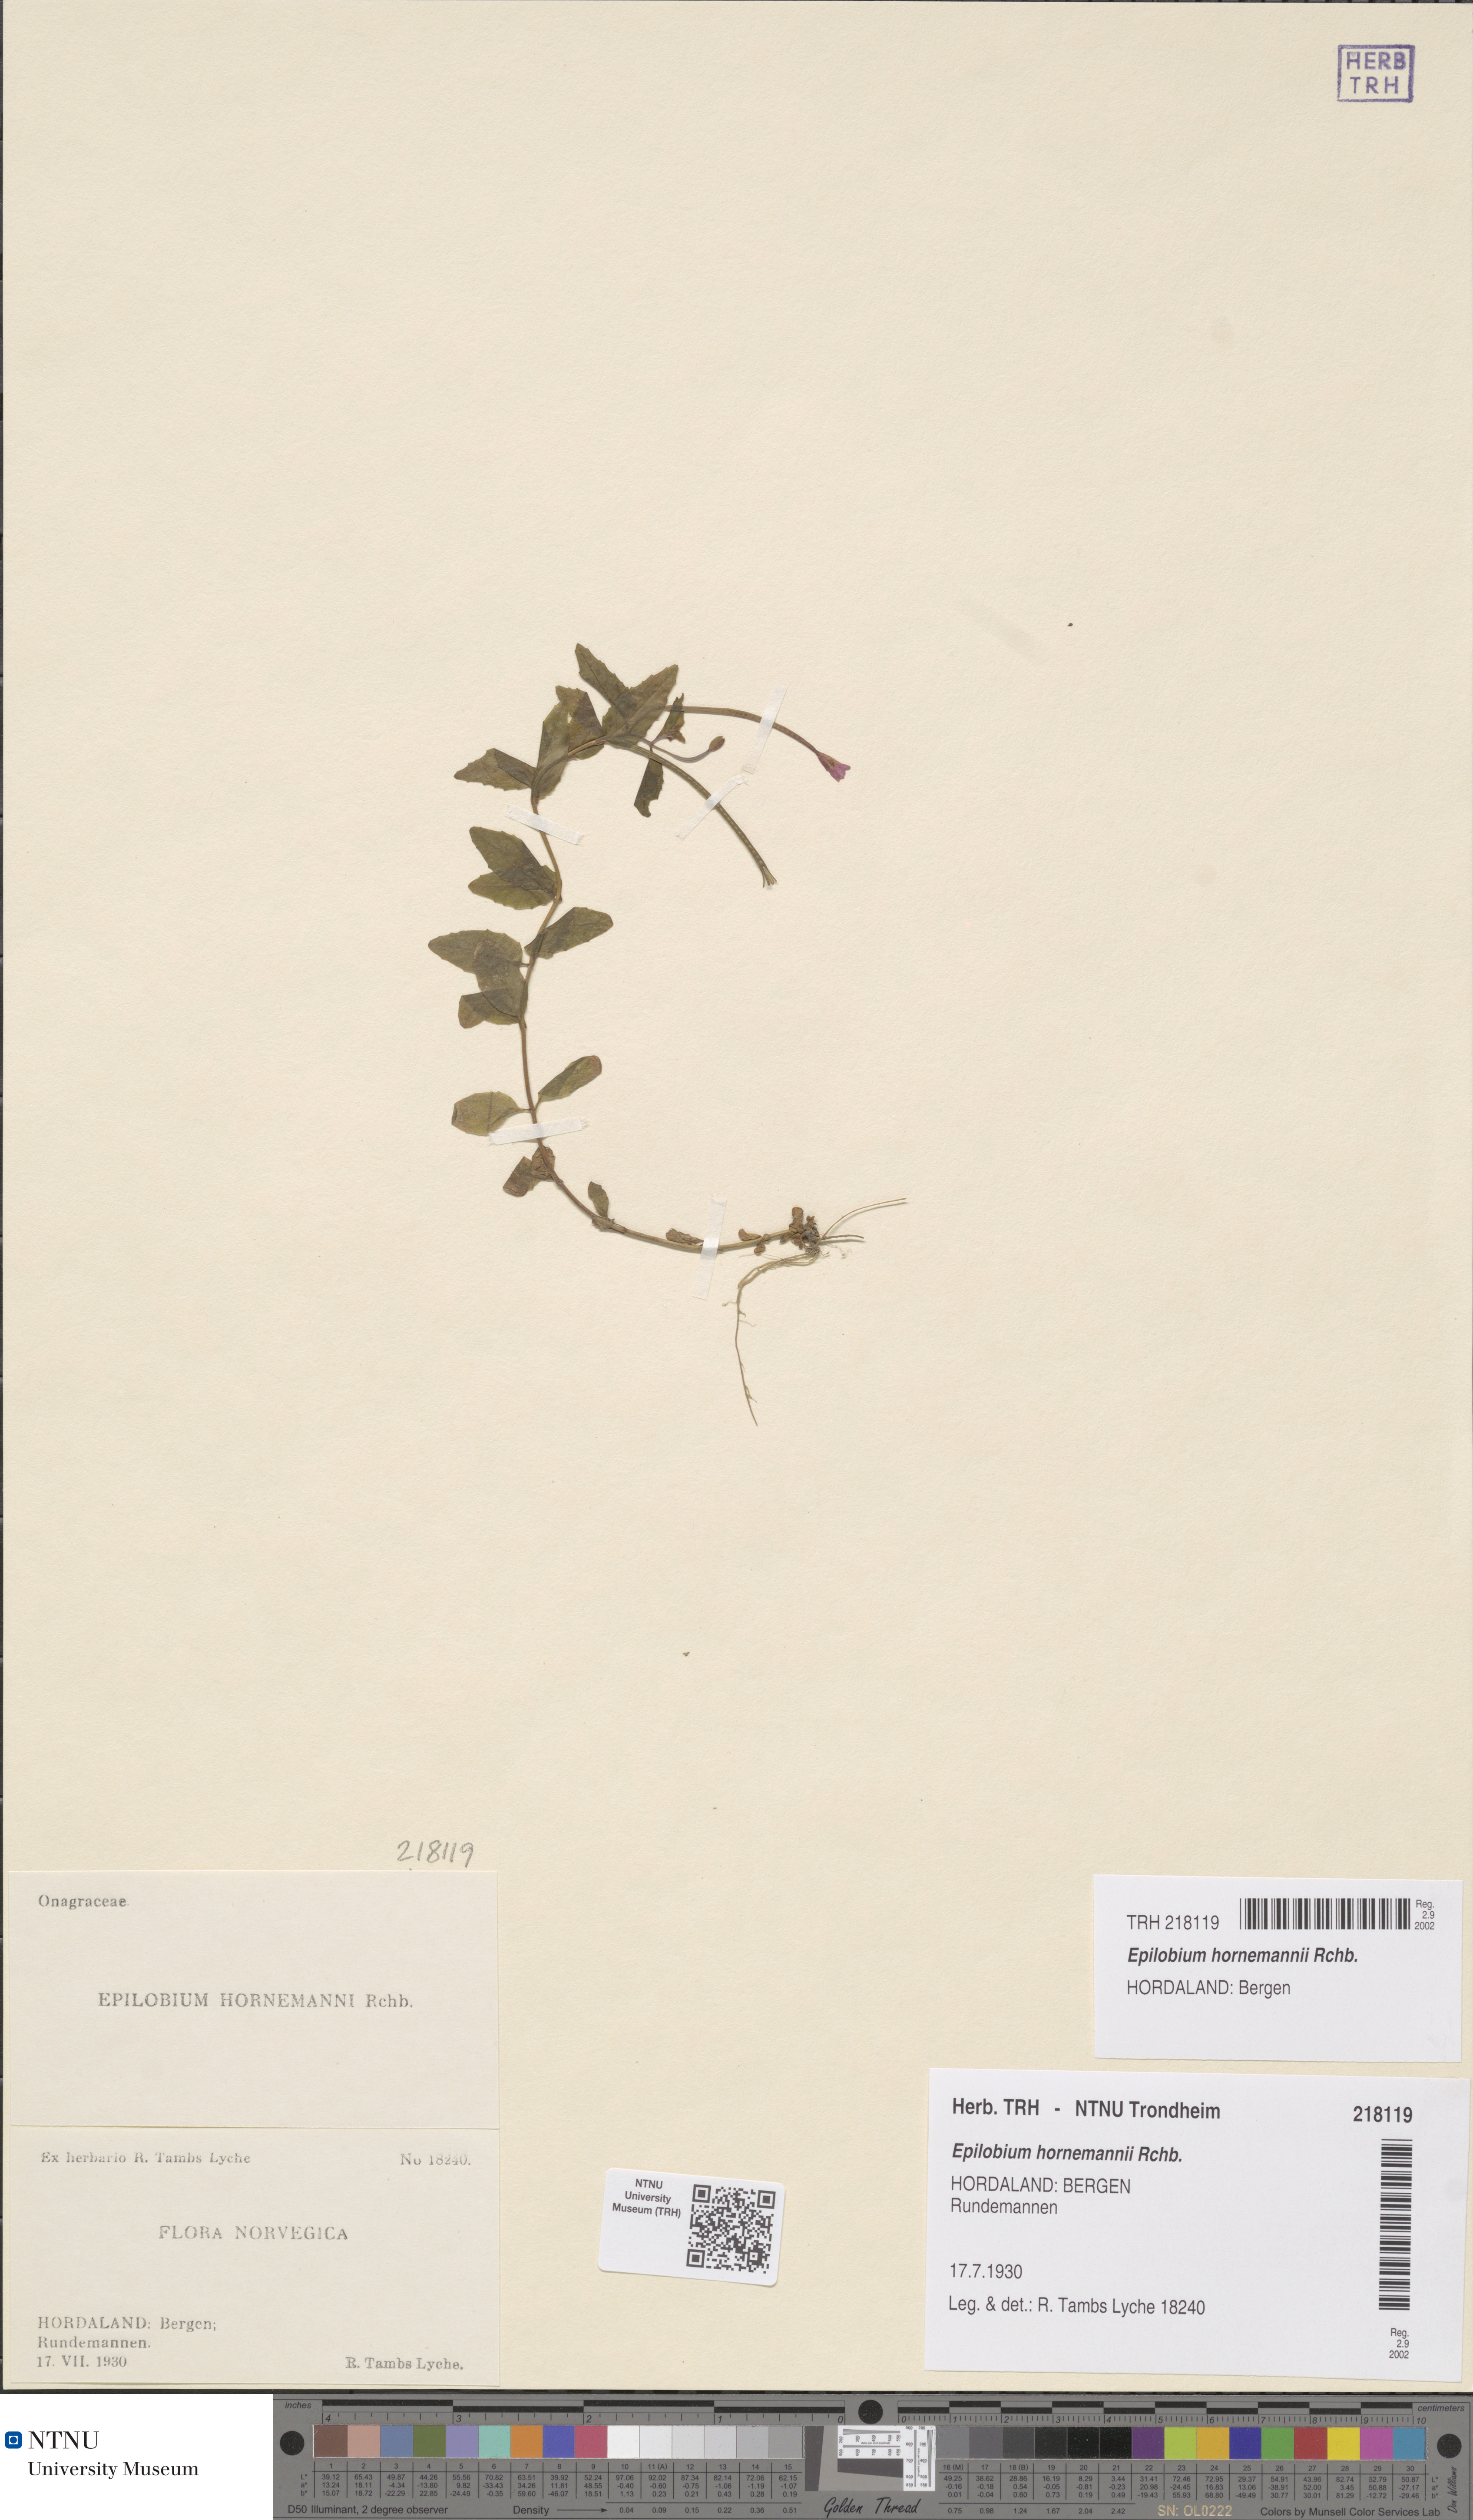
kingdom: Plantae
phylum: Tracheophyta
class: Magnoliopsida
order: Myrtales
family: Onagraceae
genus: Epilobium
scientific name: Epilobium hornemannii
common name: Hornemann's willowherb
